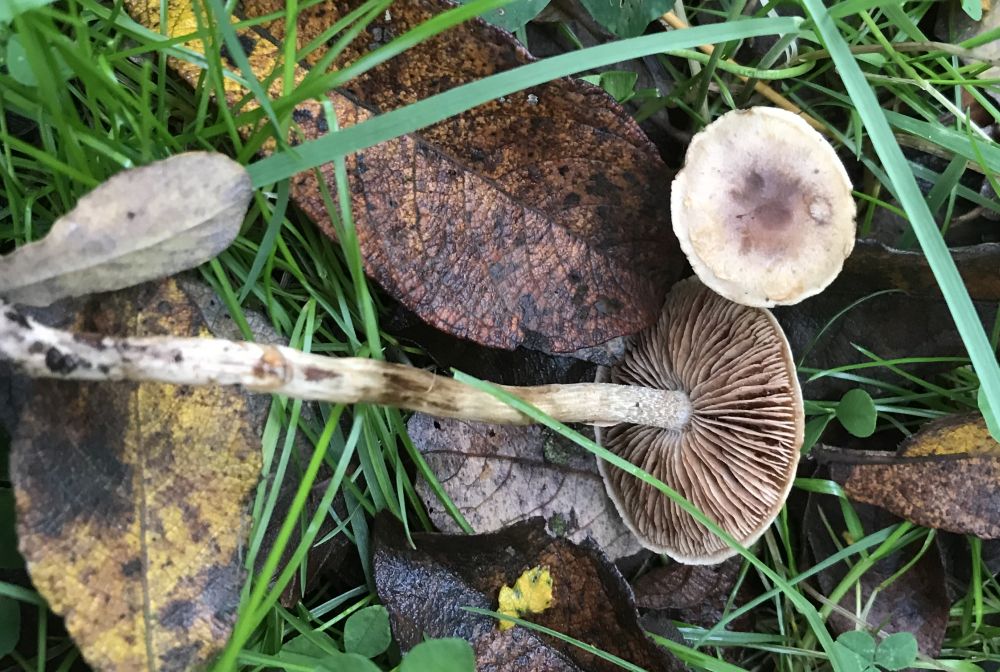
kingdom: Fungi
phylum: Basidiomycota
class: Agaricomycetes
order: Agaricales
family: Hymenogastraceae
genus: Hebeloma
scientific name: Hebeloma
